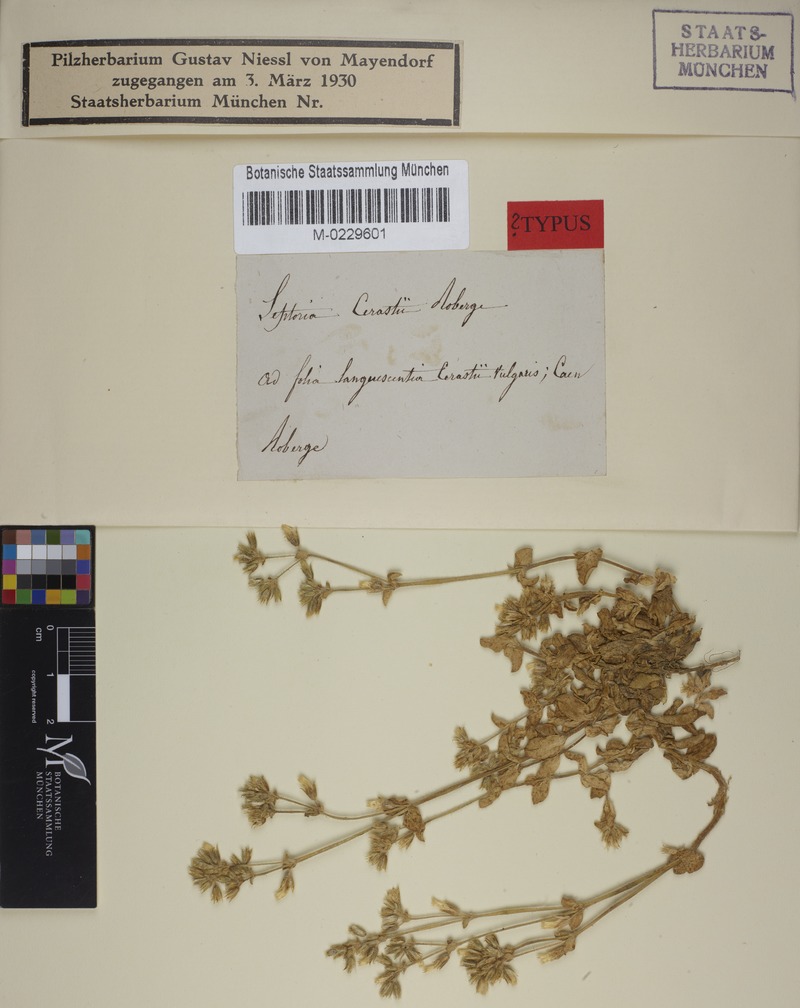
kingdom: Fungi
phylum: Ascomycota
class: Dothideomycetes
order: Mycosphaerellales
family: Mycosphaerellaceae
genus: Septoria
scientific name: Septoria cerastii
